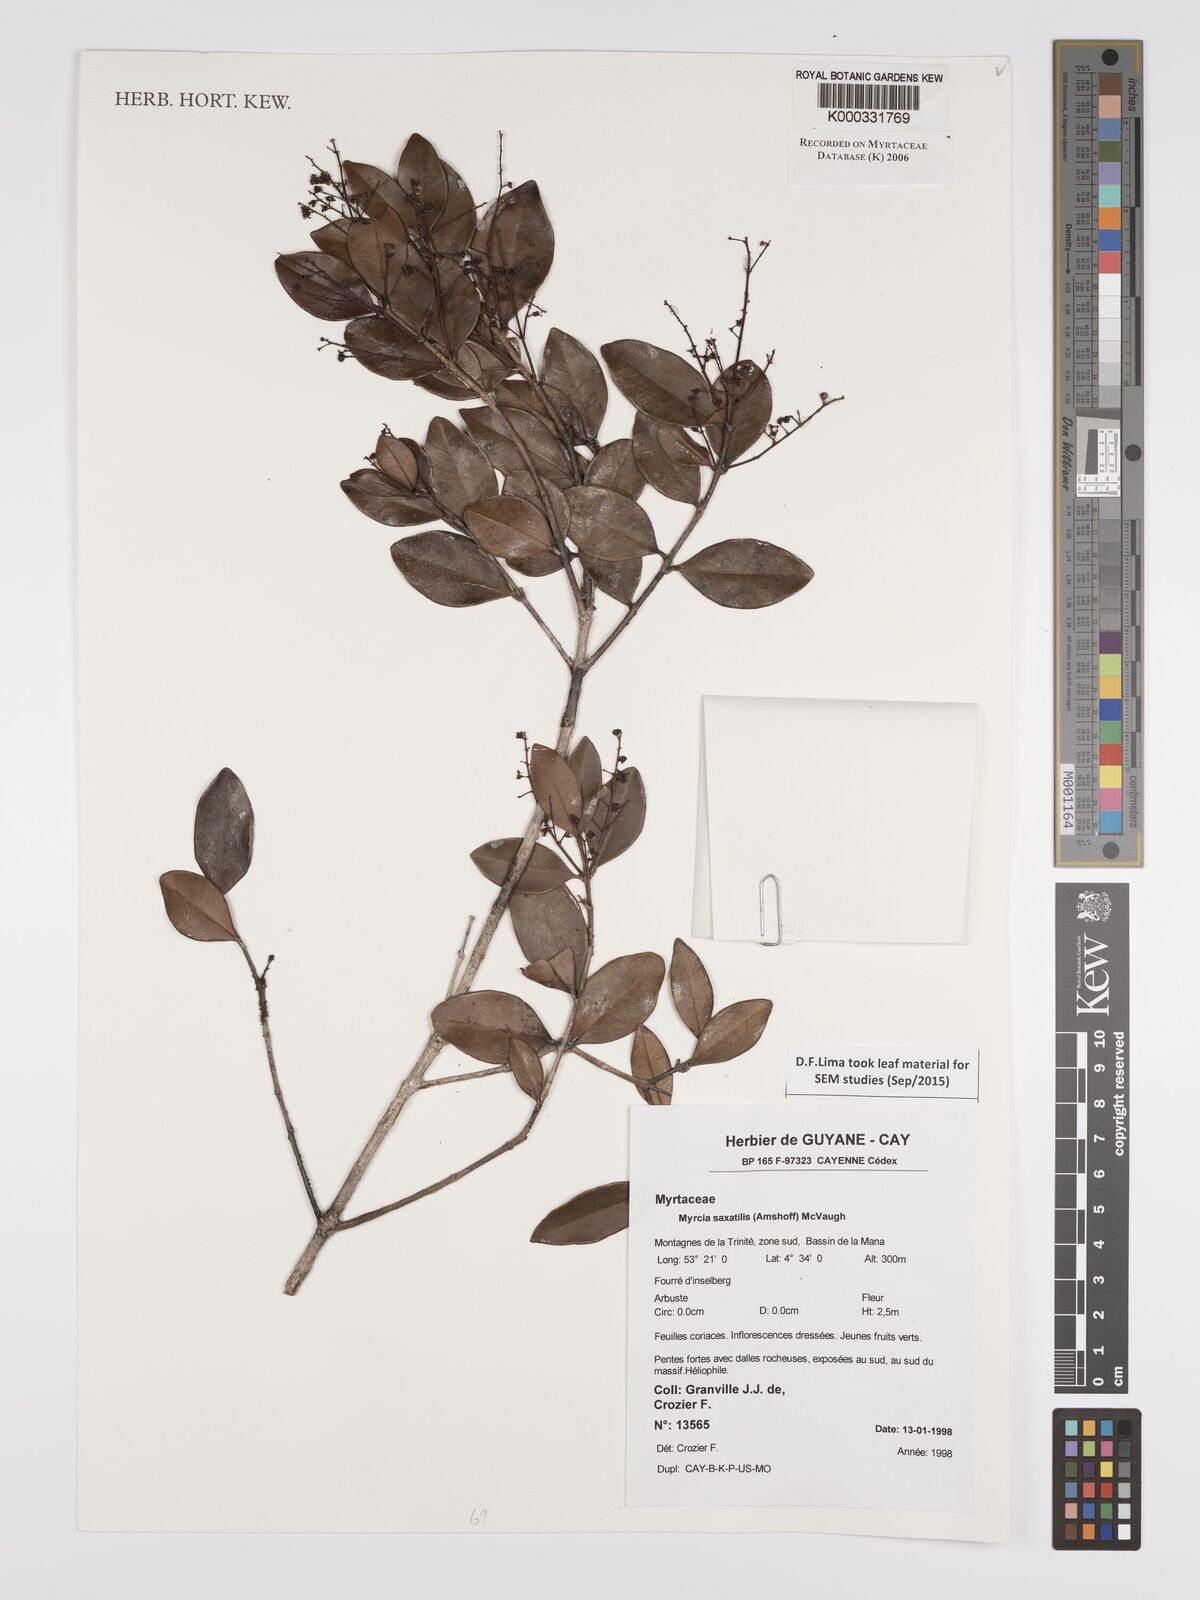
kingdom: Plantae
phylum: Tracheophyta
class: Magnoliopsida
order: Myrtales
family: Myrtaceae
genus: Myrcia
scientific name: Myrcia saxatilis
